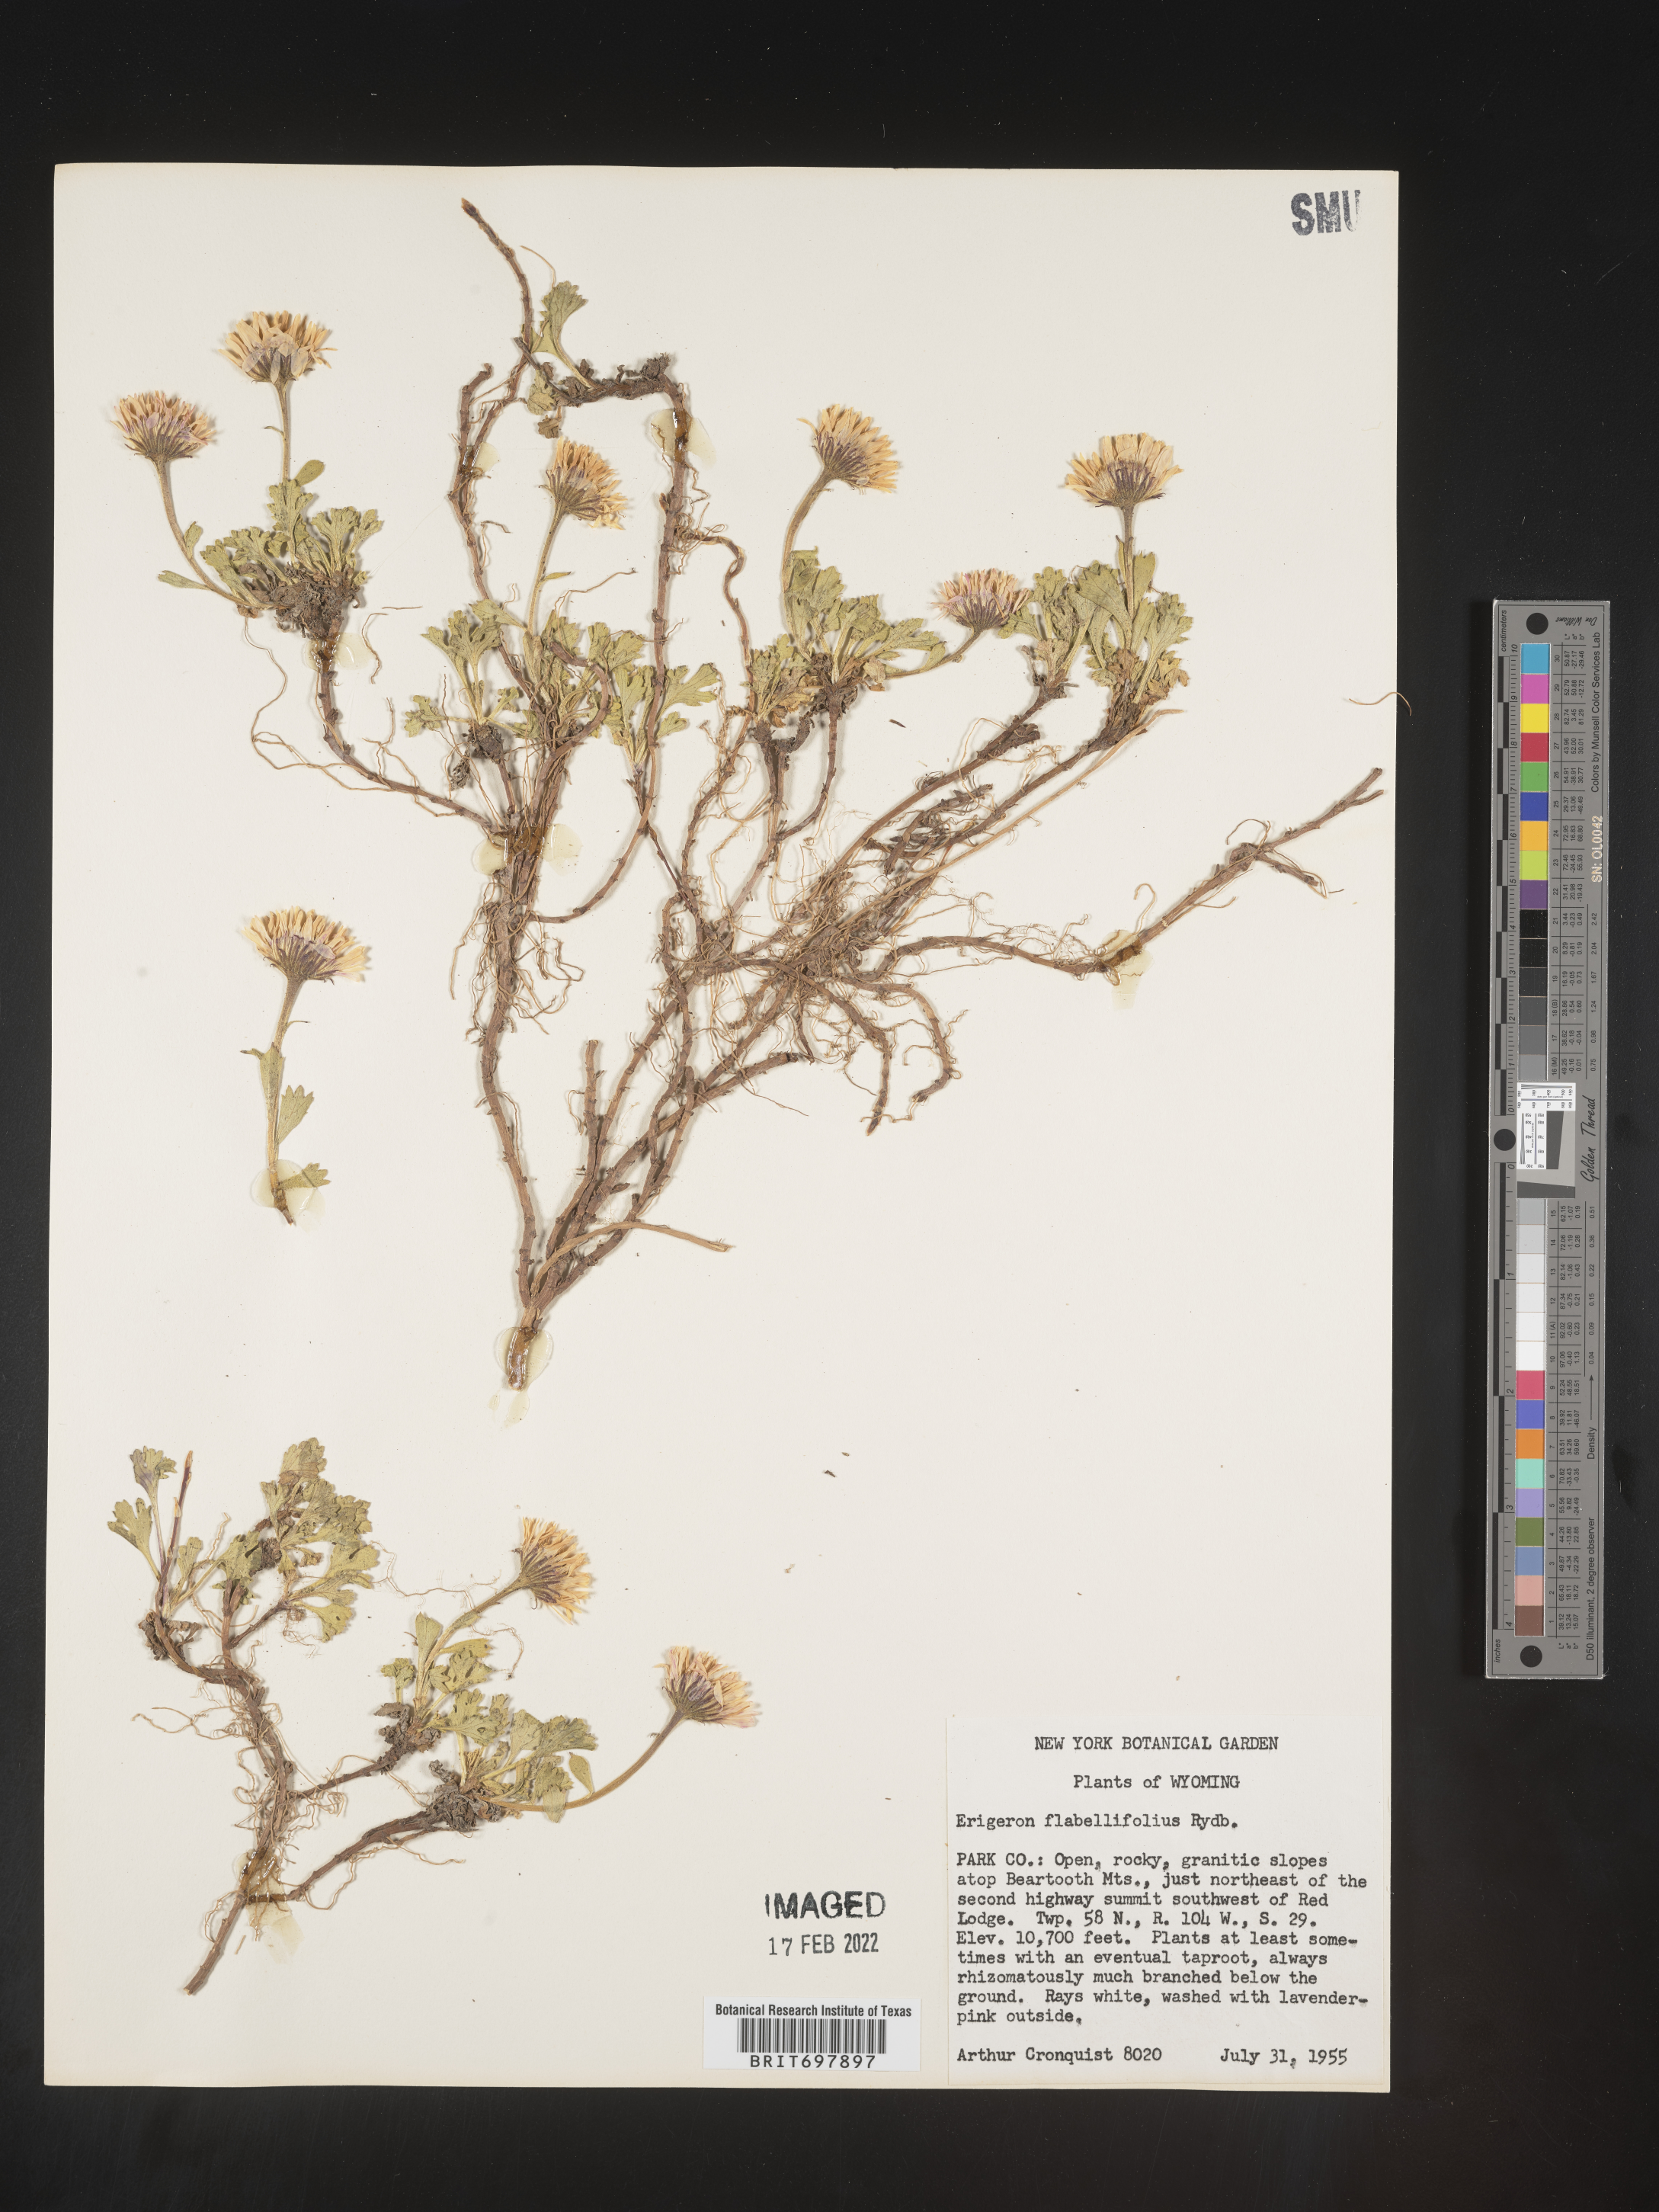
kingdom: Plantae
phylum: Tracheophyta
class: Magnoliopsida
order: Asterales
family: Asteraceae
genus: Erigeron
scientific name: Erigeron flabellifolius
